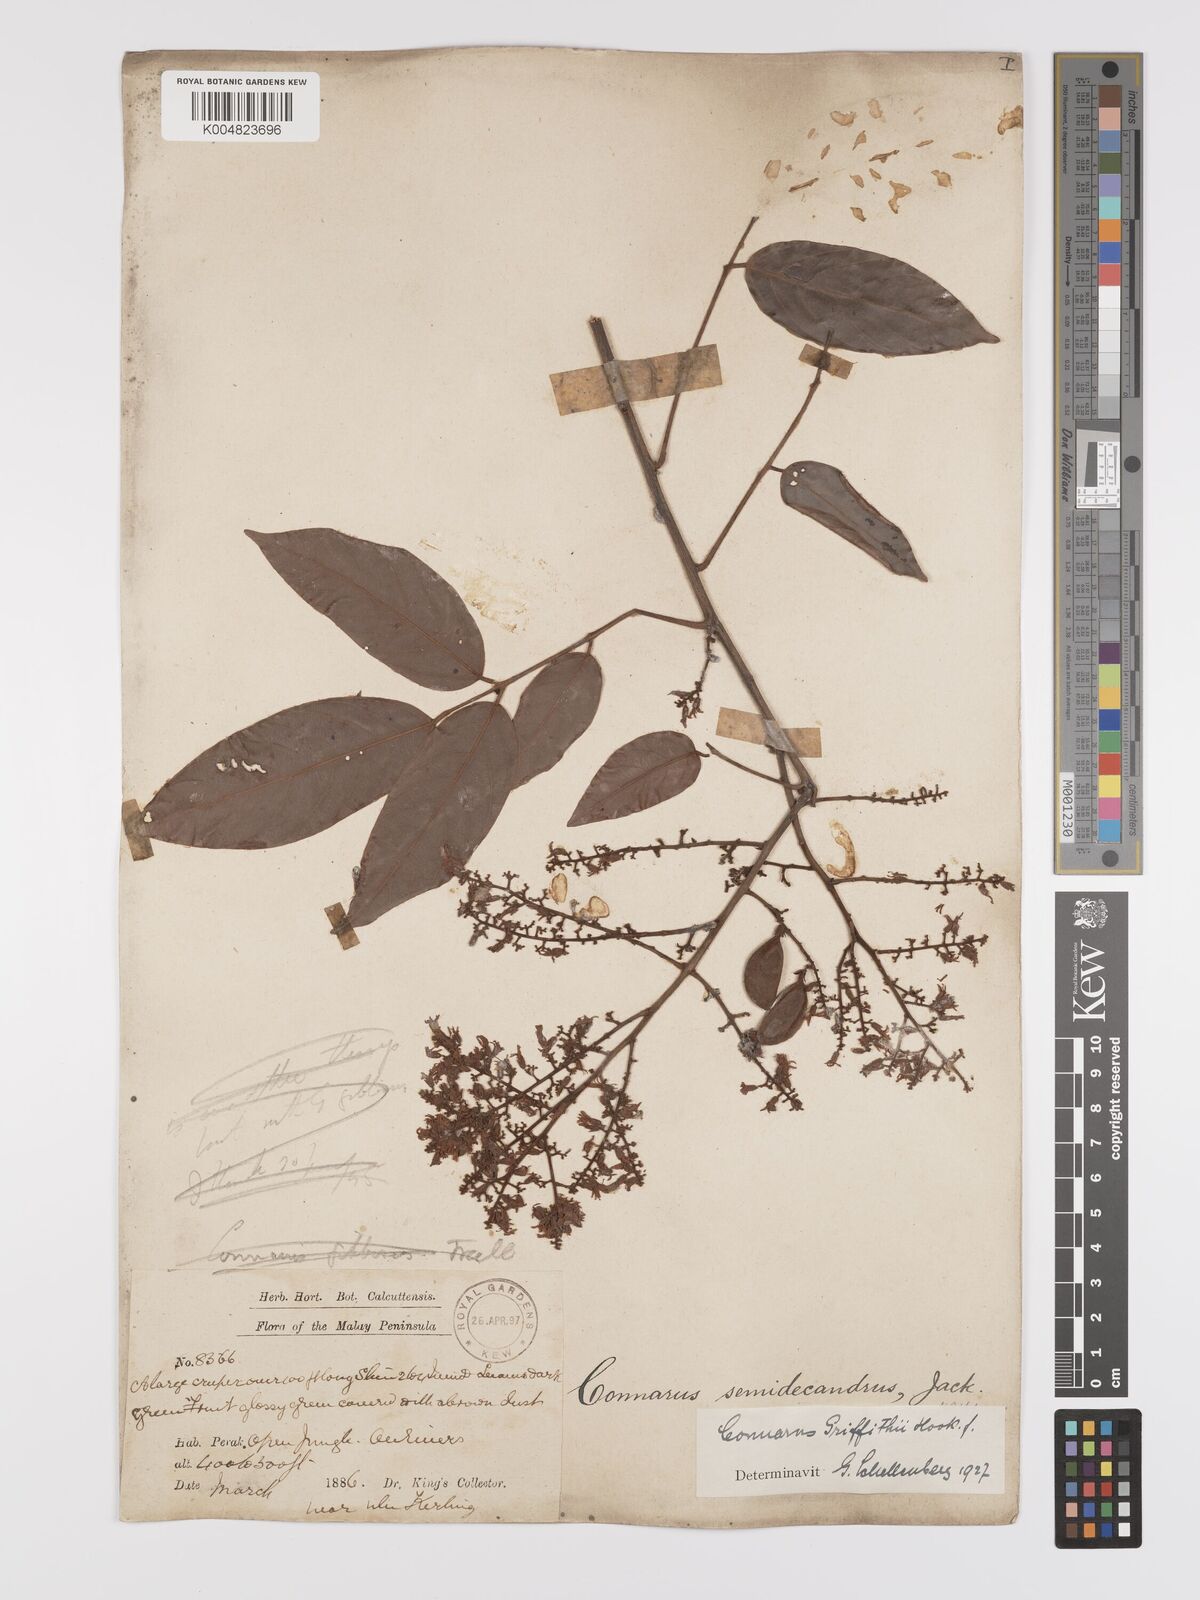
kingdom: Plantae
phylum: Tracheophyta
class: Magnoliopsida
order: Oxalidales
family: Connaraceae
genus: Connarus
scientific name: Connarus semidecandrus
